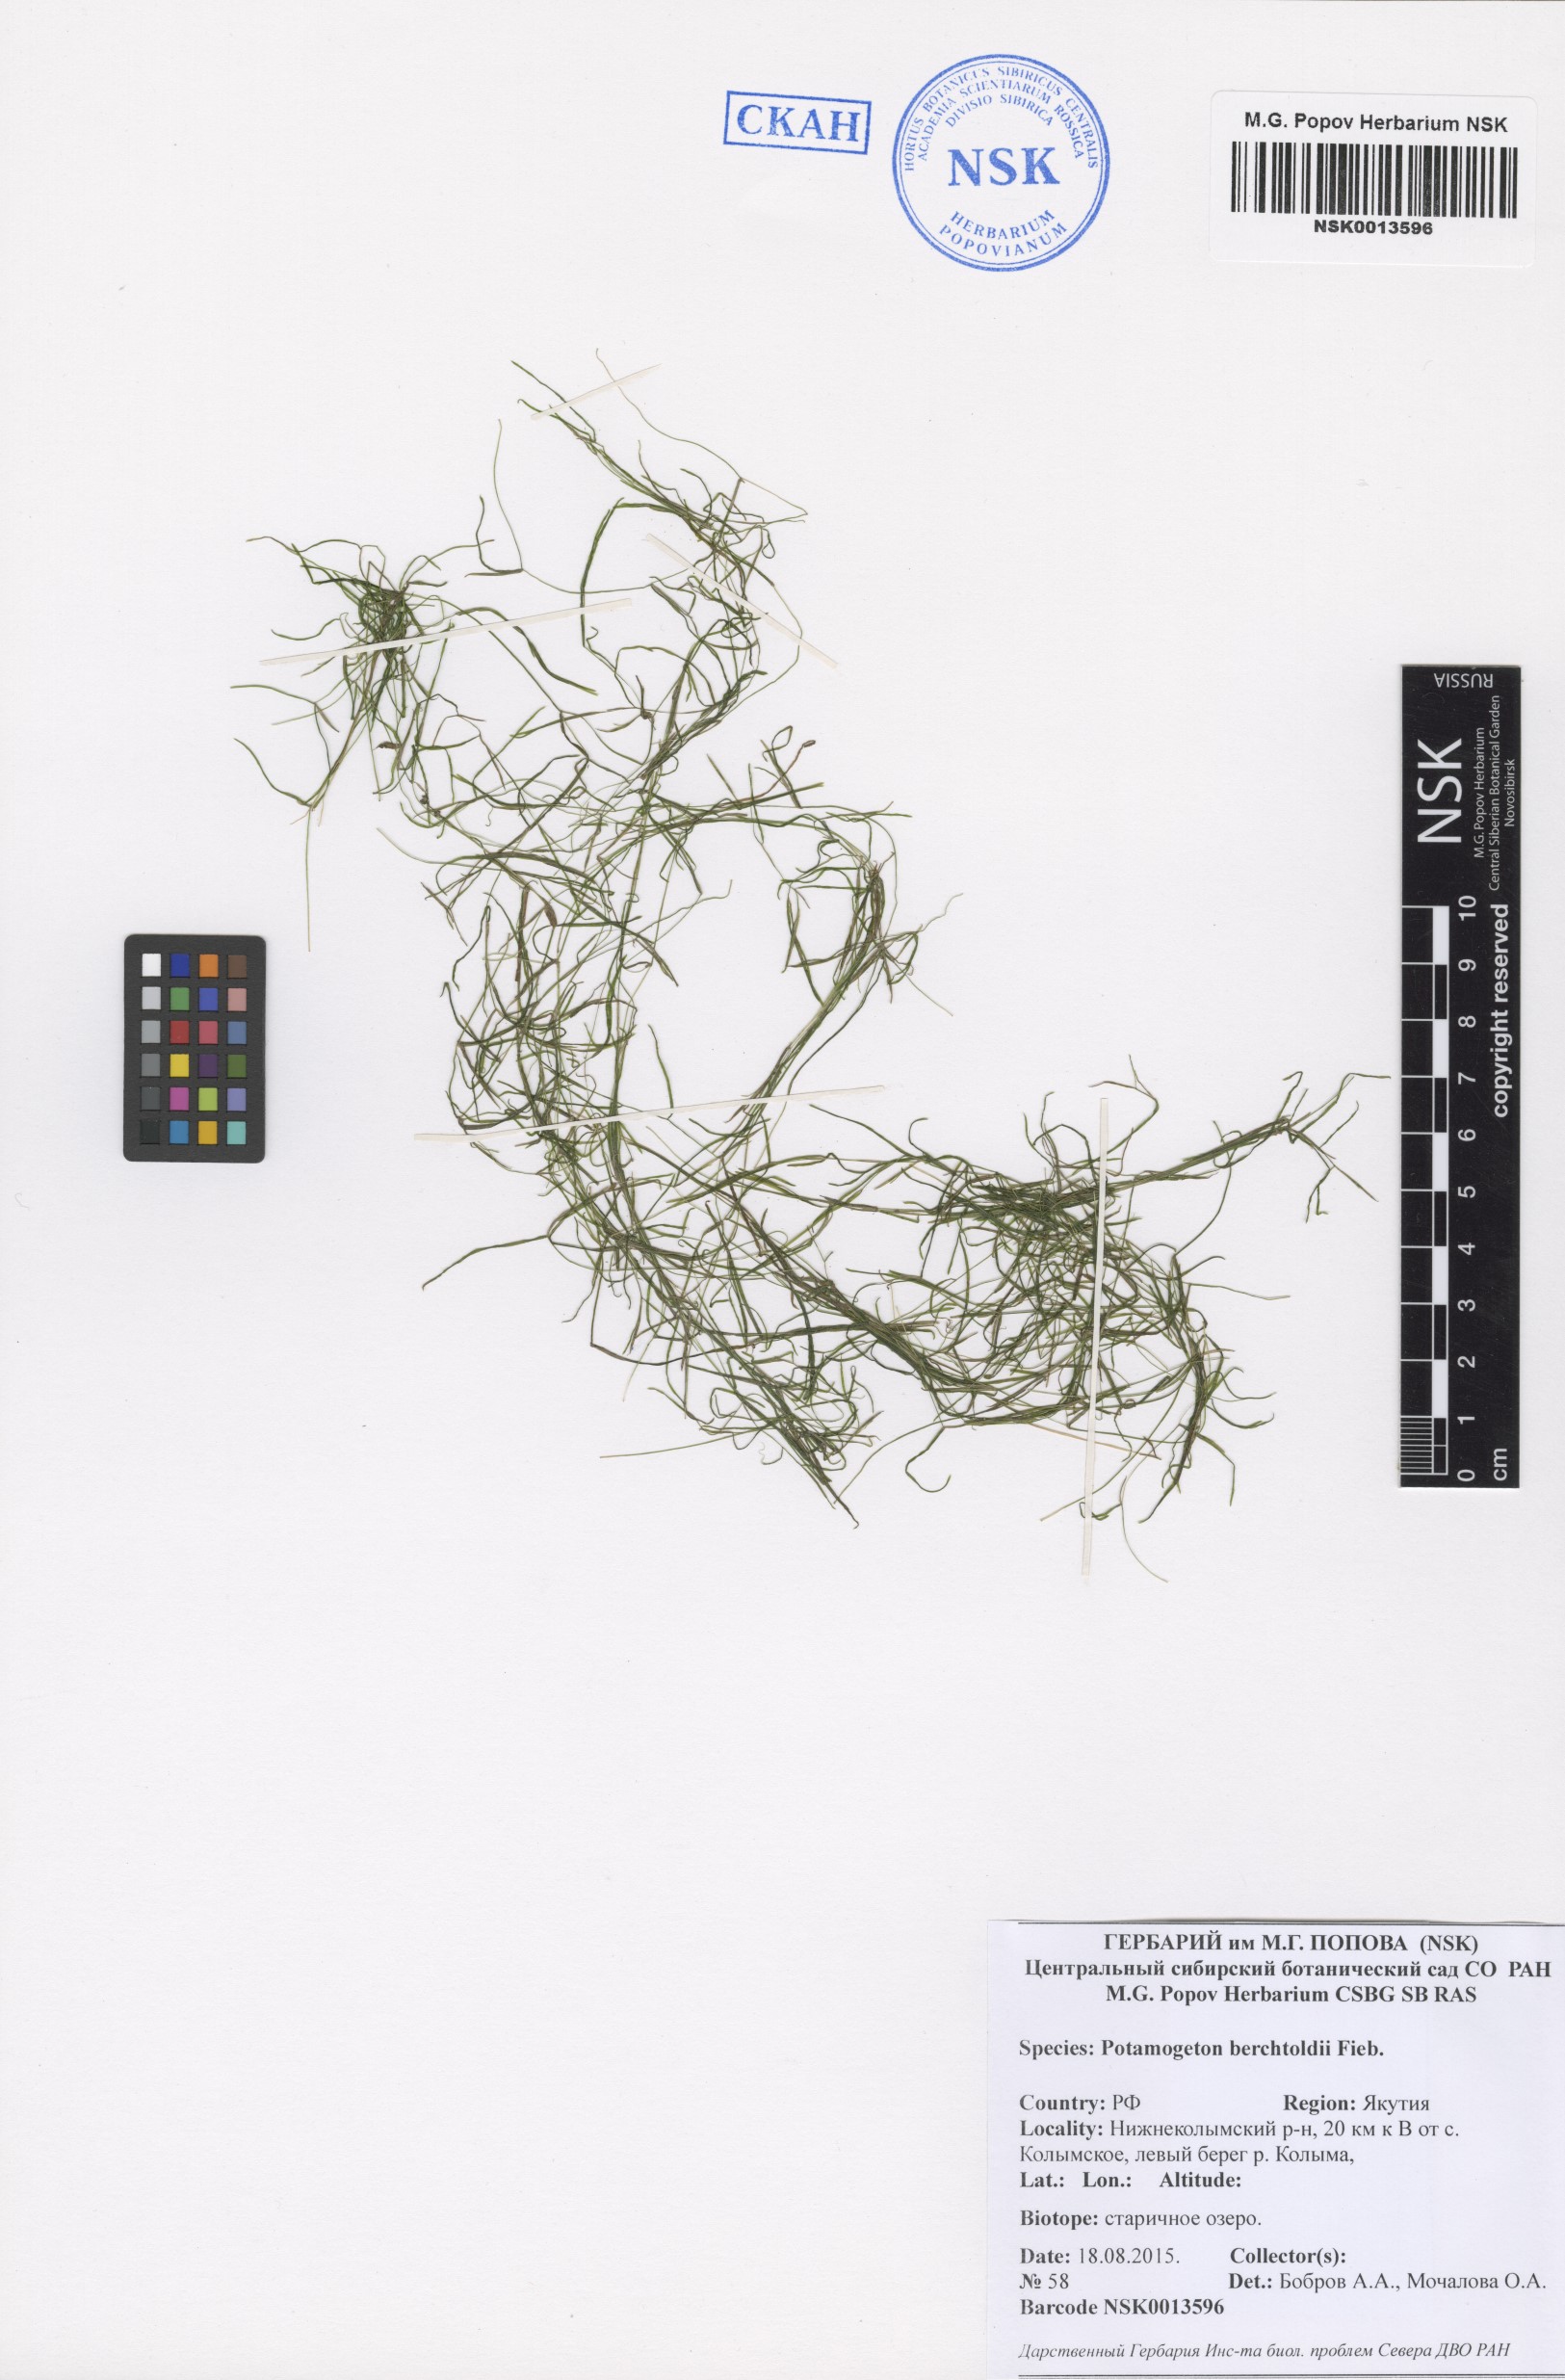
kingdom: Plantae
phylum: Tracheophyta
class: Liliopsida
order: Alismatales
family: Potamogetonaceae
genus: Potamogeton
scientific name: Potamogeton berchtoldii
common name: Small pondweed
